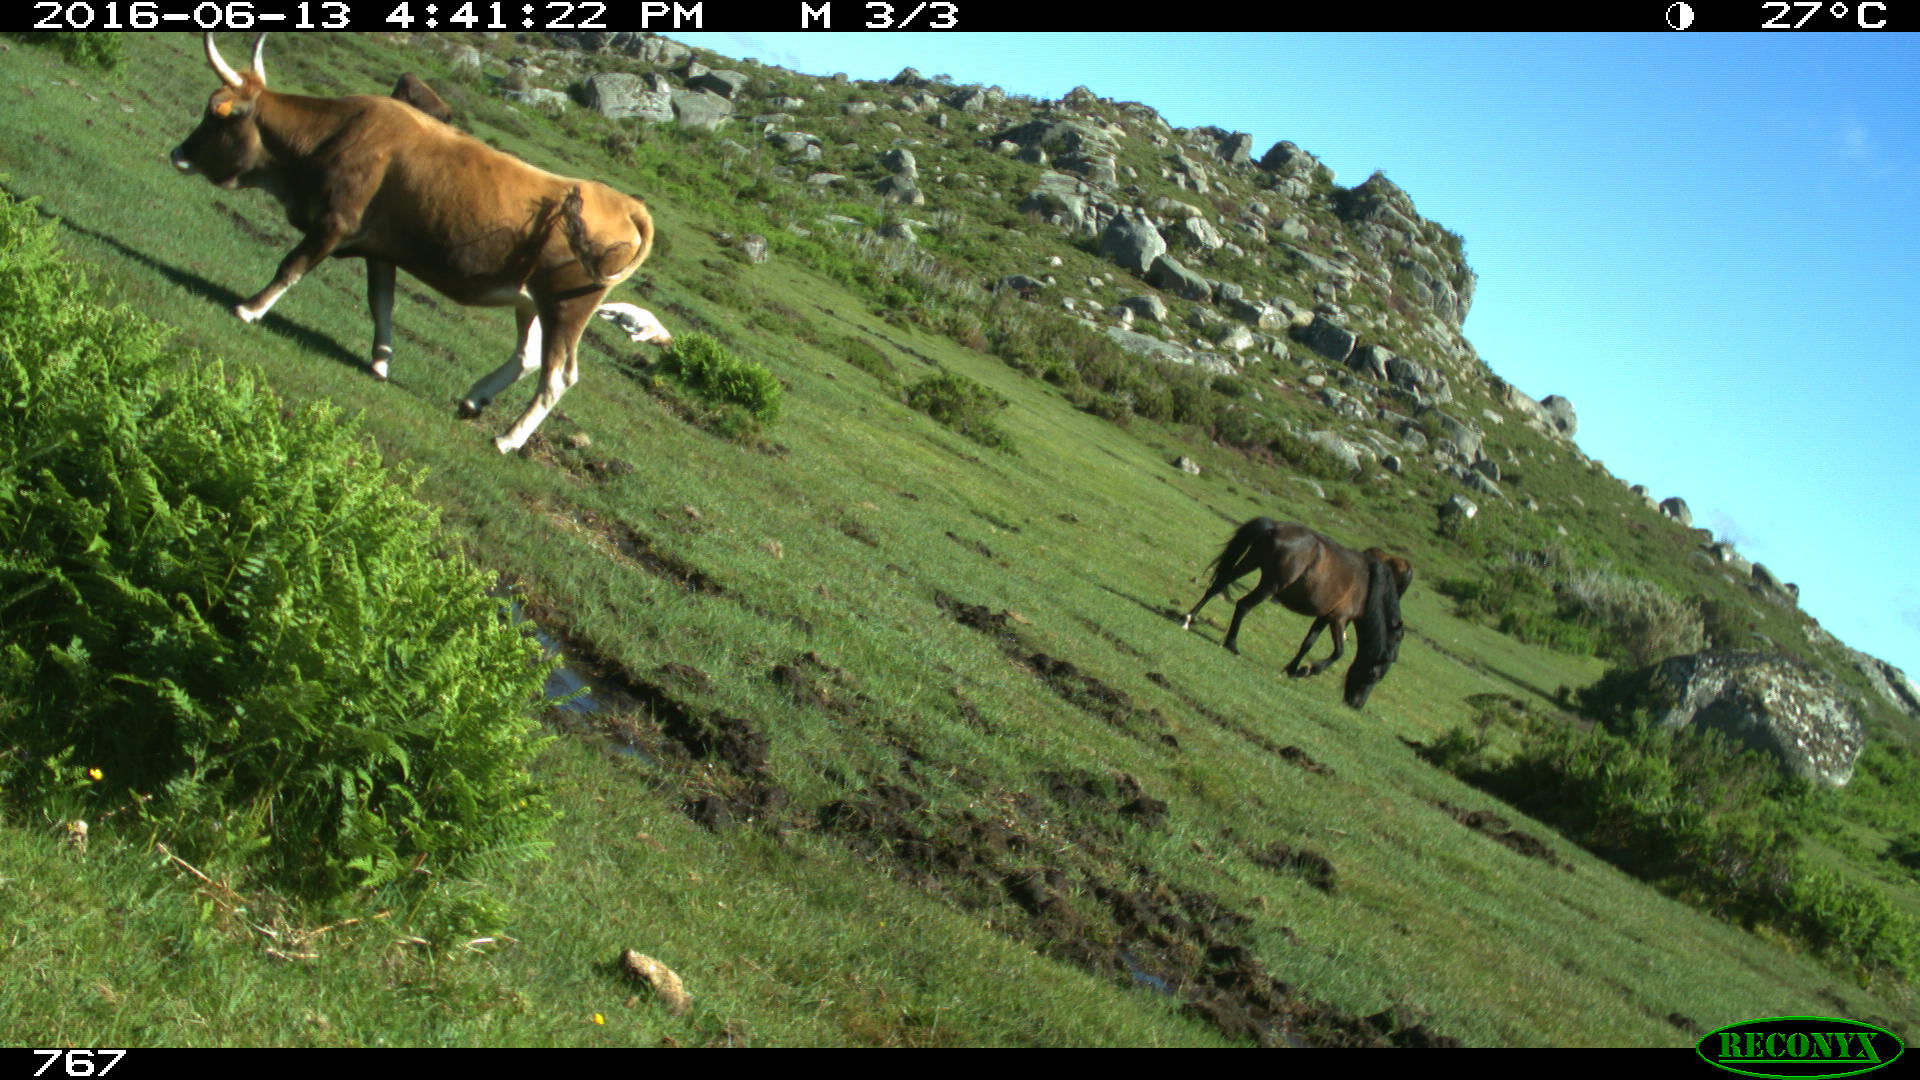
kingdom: Animalia
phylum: Chordata
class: Mammalia
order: Perissodactyla
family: Equidae
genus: Equus
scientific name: Equus caballus
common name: Horse
